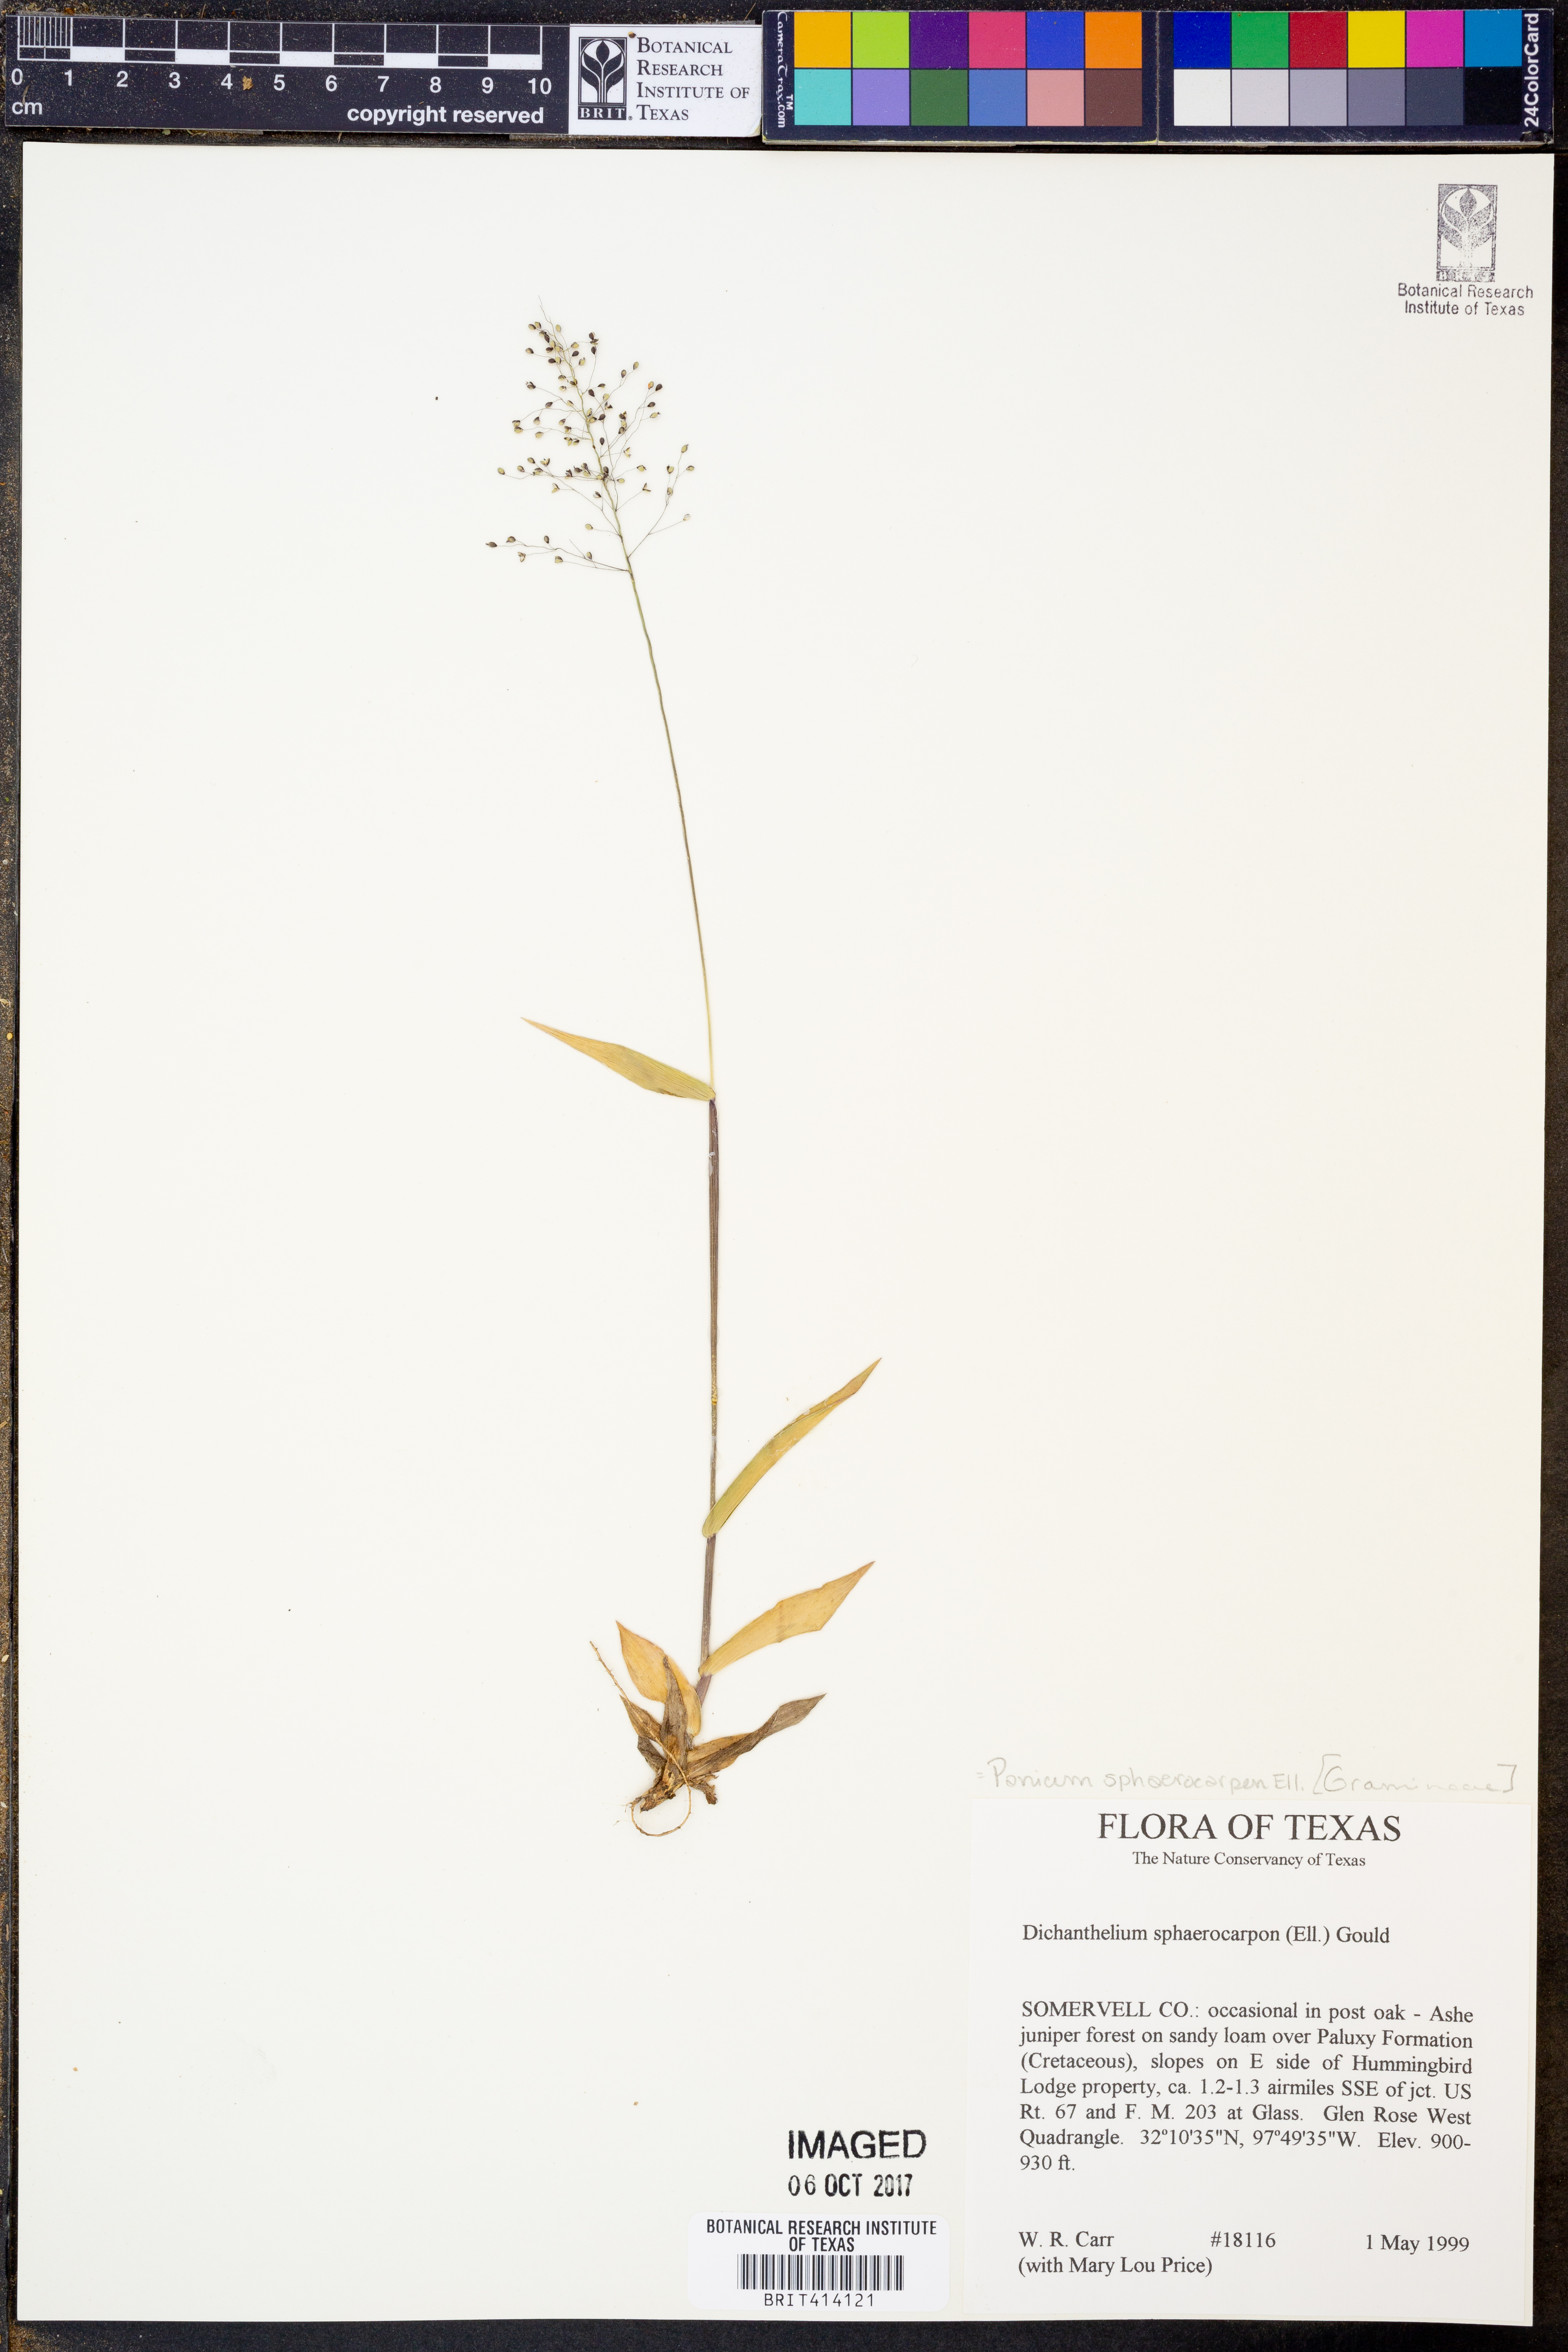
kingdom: Plantae
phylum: Tracheophyta
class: Liliopsida
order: Poales
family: Poaceae
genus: Dichanthelium
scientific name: Dichanthelium sphaerocarpon
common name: Round-fruited panicgrass
